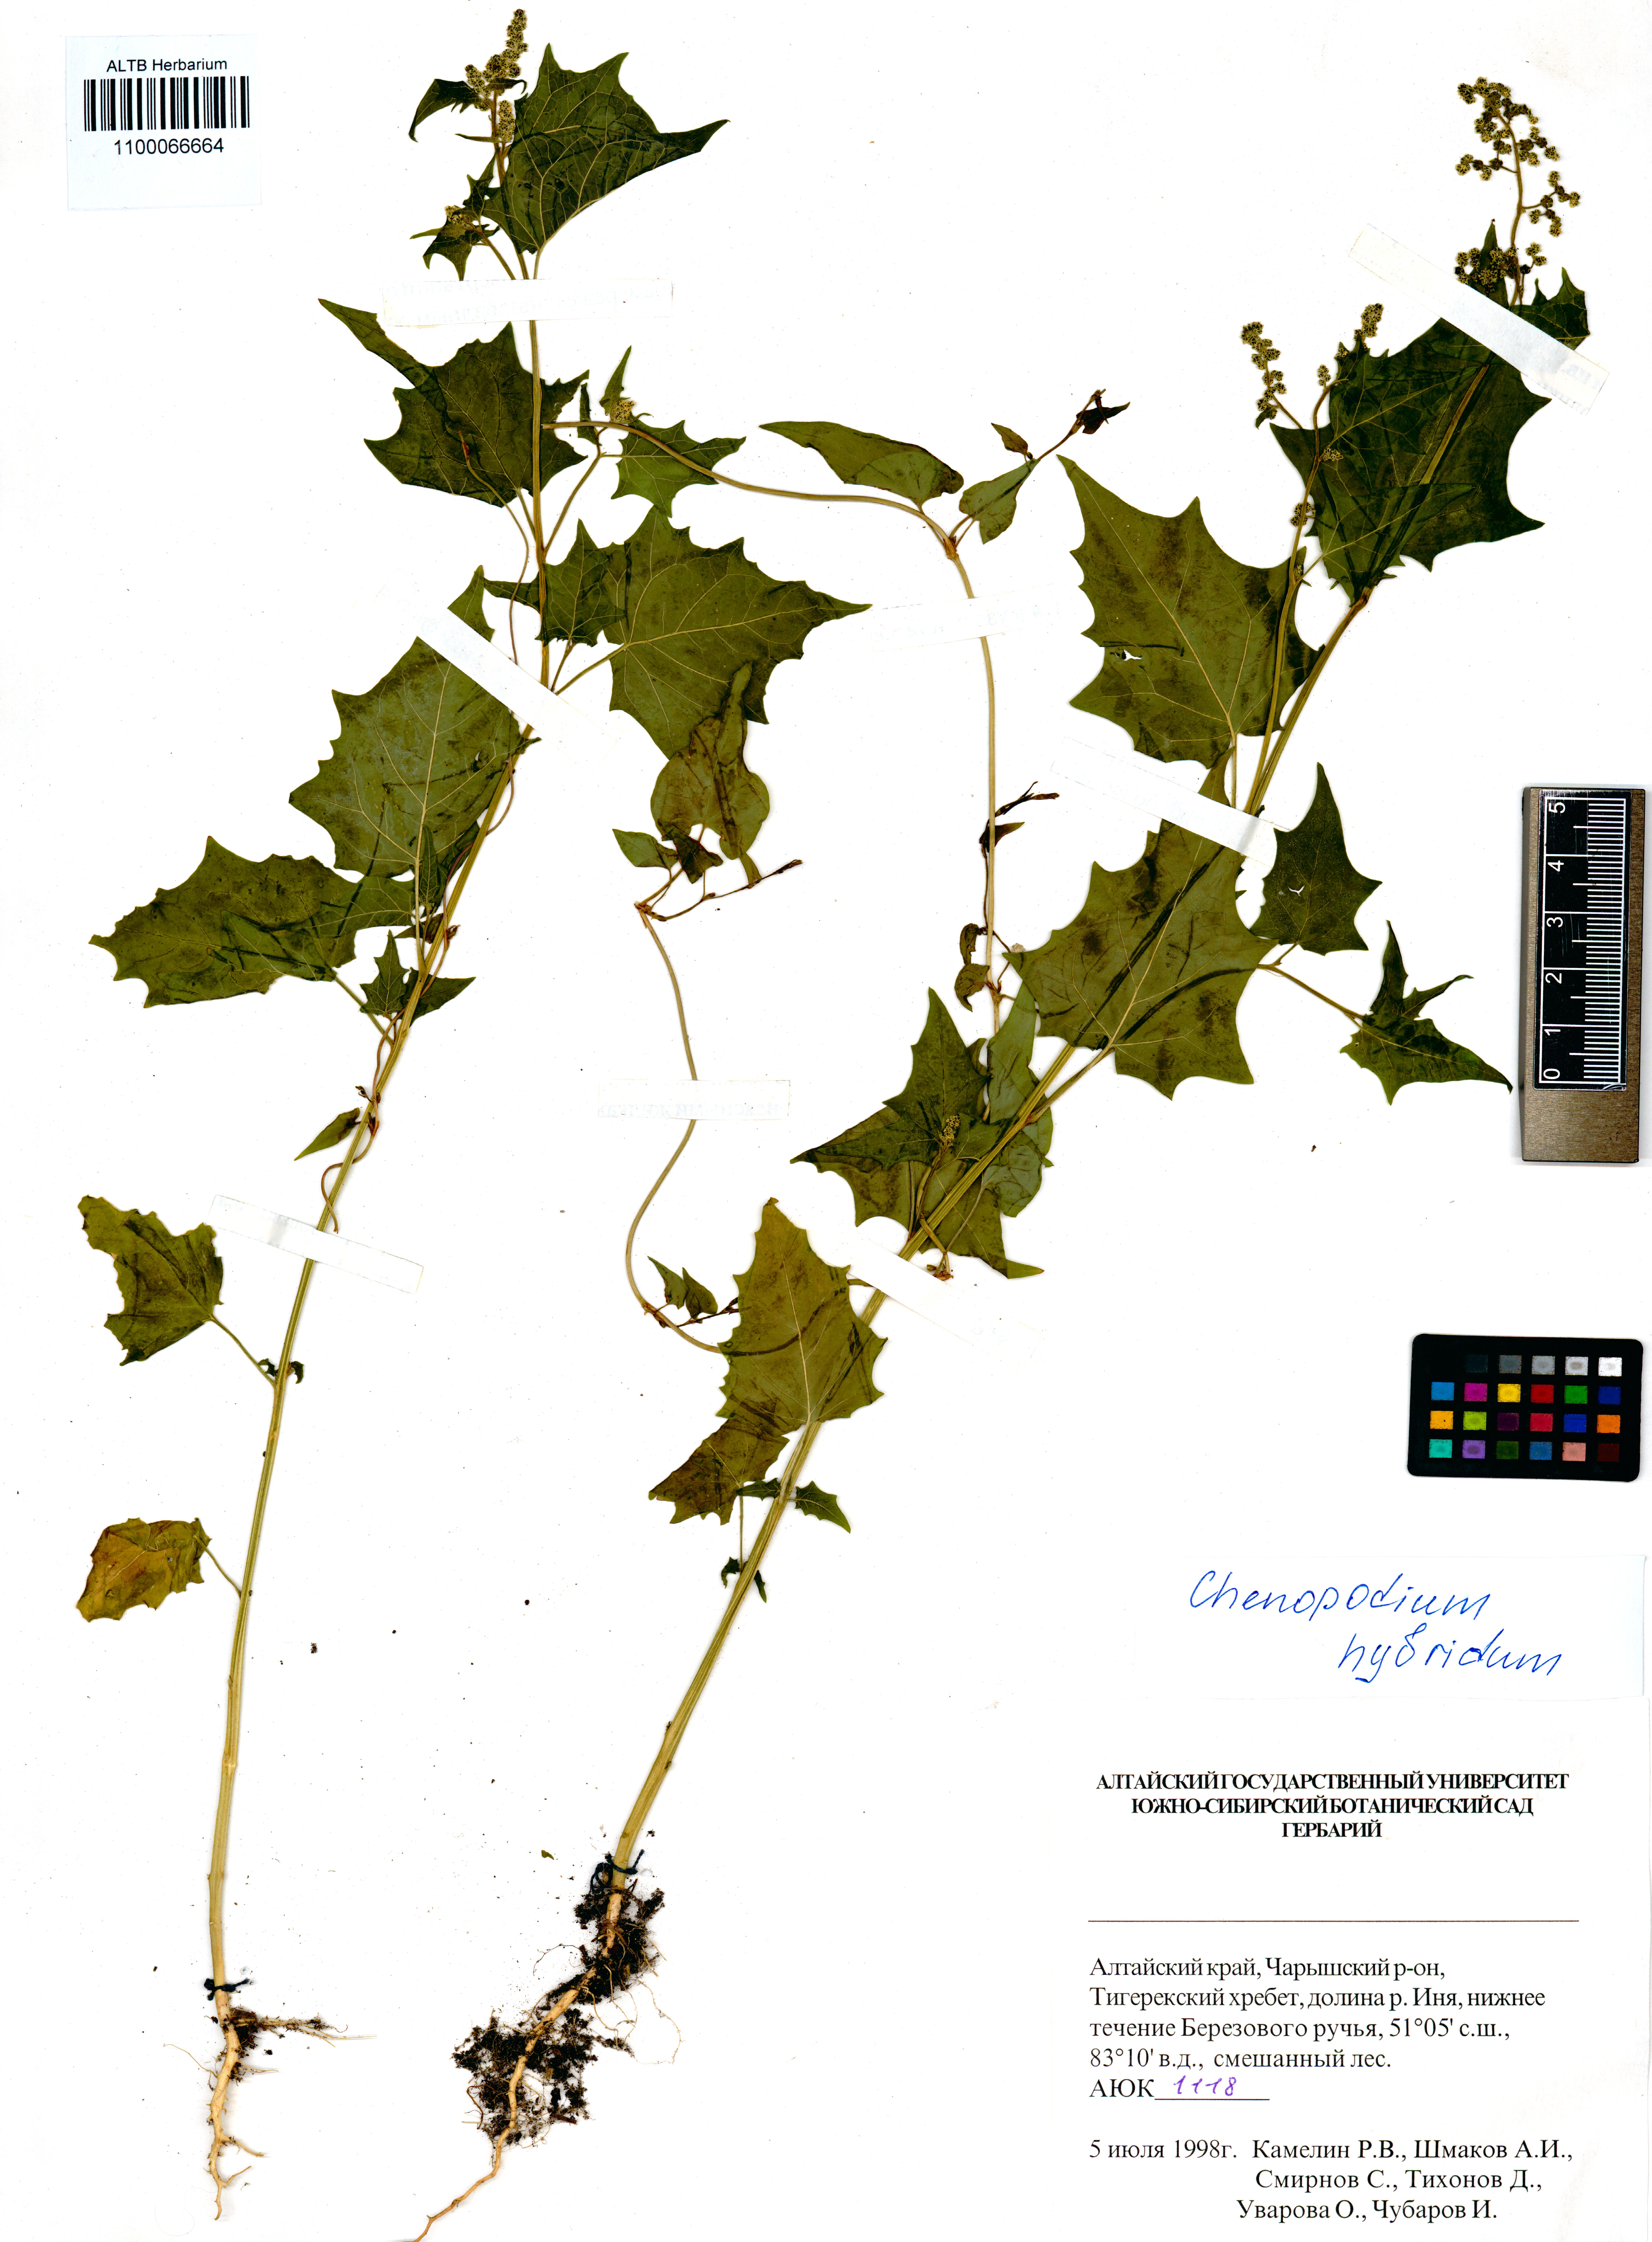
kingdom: Plantae
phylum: Tracheophyta
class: Magnoliopsida
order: Caryophyllales
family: Amaranthaceae
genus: Chenopodiastrum
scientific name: Chenopodiastrum hybridum
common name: Mapleleaf goosefoot
